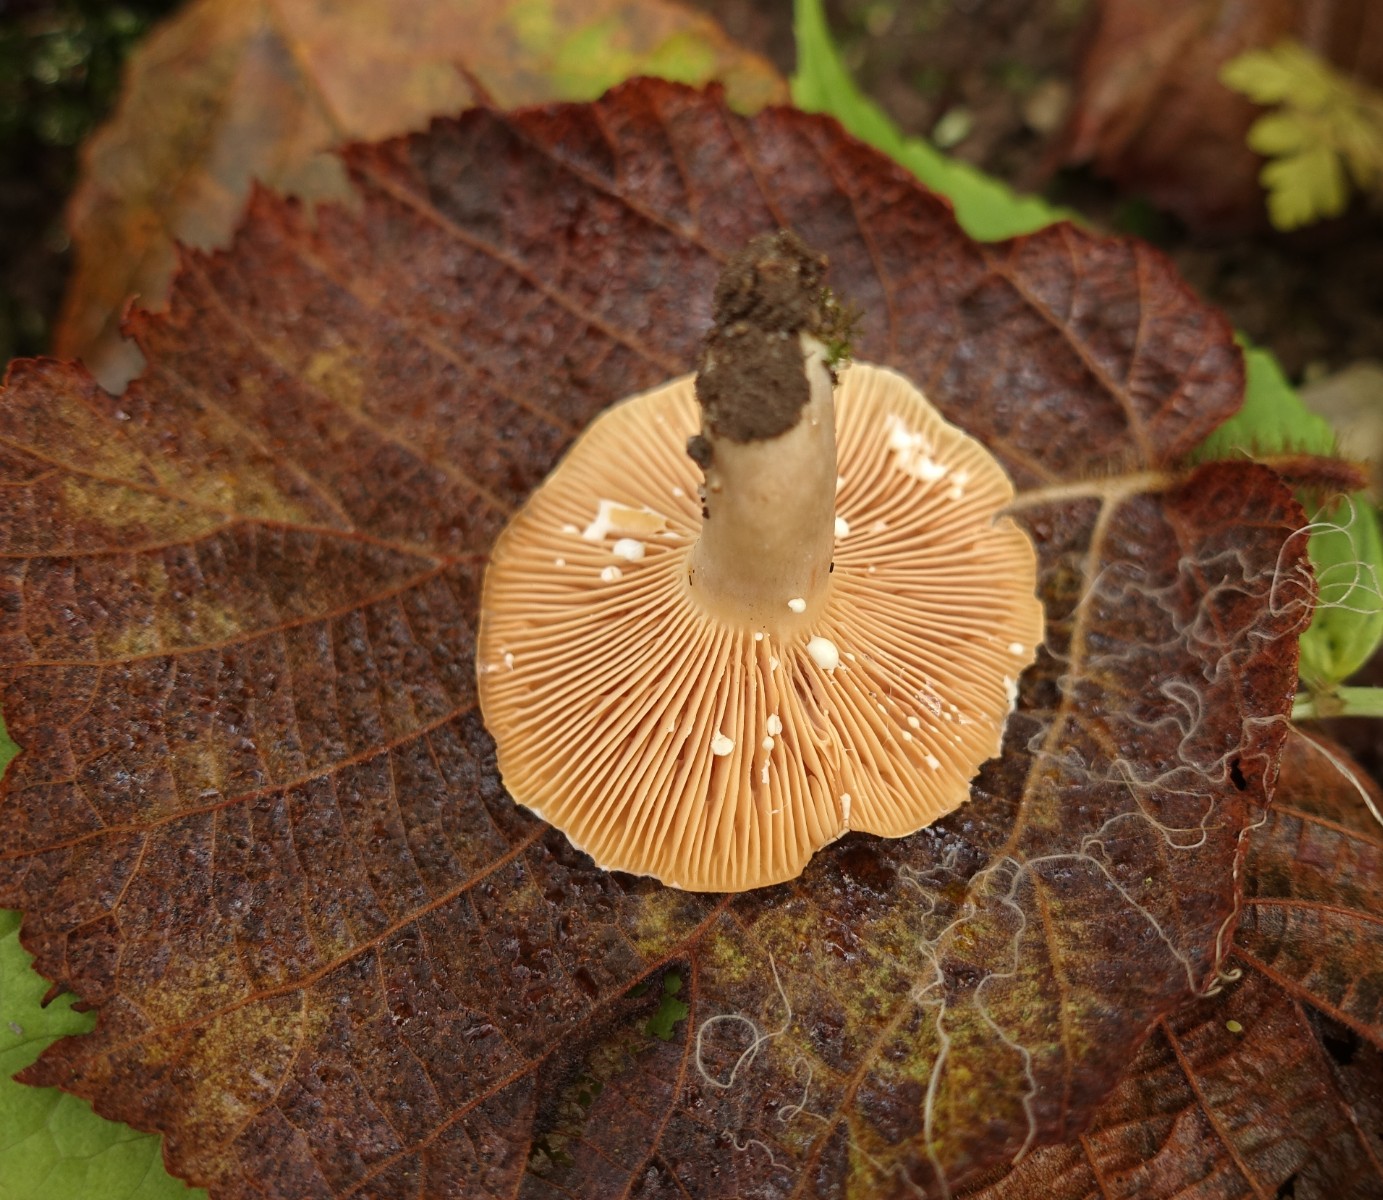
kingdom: Fungi
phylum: Basidiomycota
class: Agaricomycetes
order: Russulales
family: Russulaceae
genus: Lactarius
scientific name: Lactarius pyrogalus
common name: hassel-mælkehat
